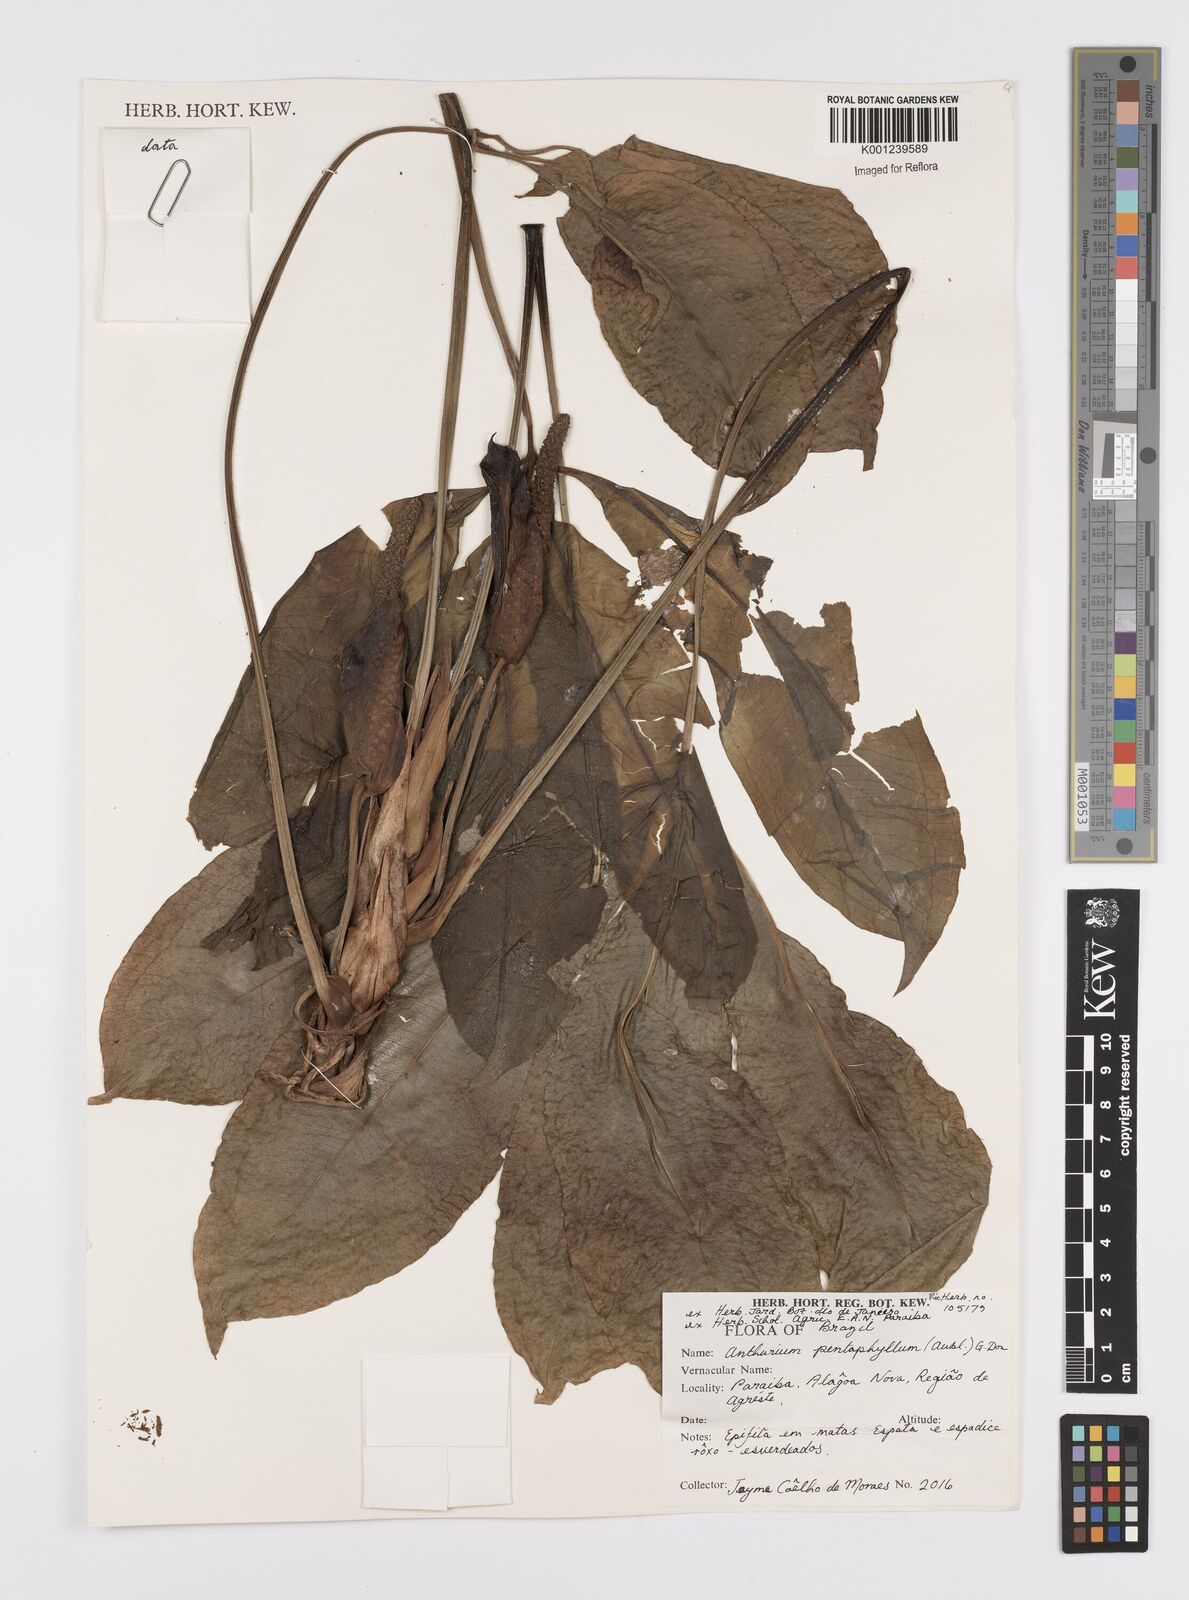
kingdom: Plantae
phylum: Tracheophyta
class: Liliopsida
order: Alismatales
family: Araceae
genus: Anthurium
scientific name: Anthurium pentaphyllum
